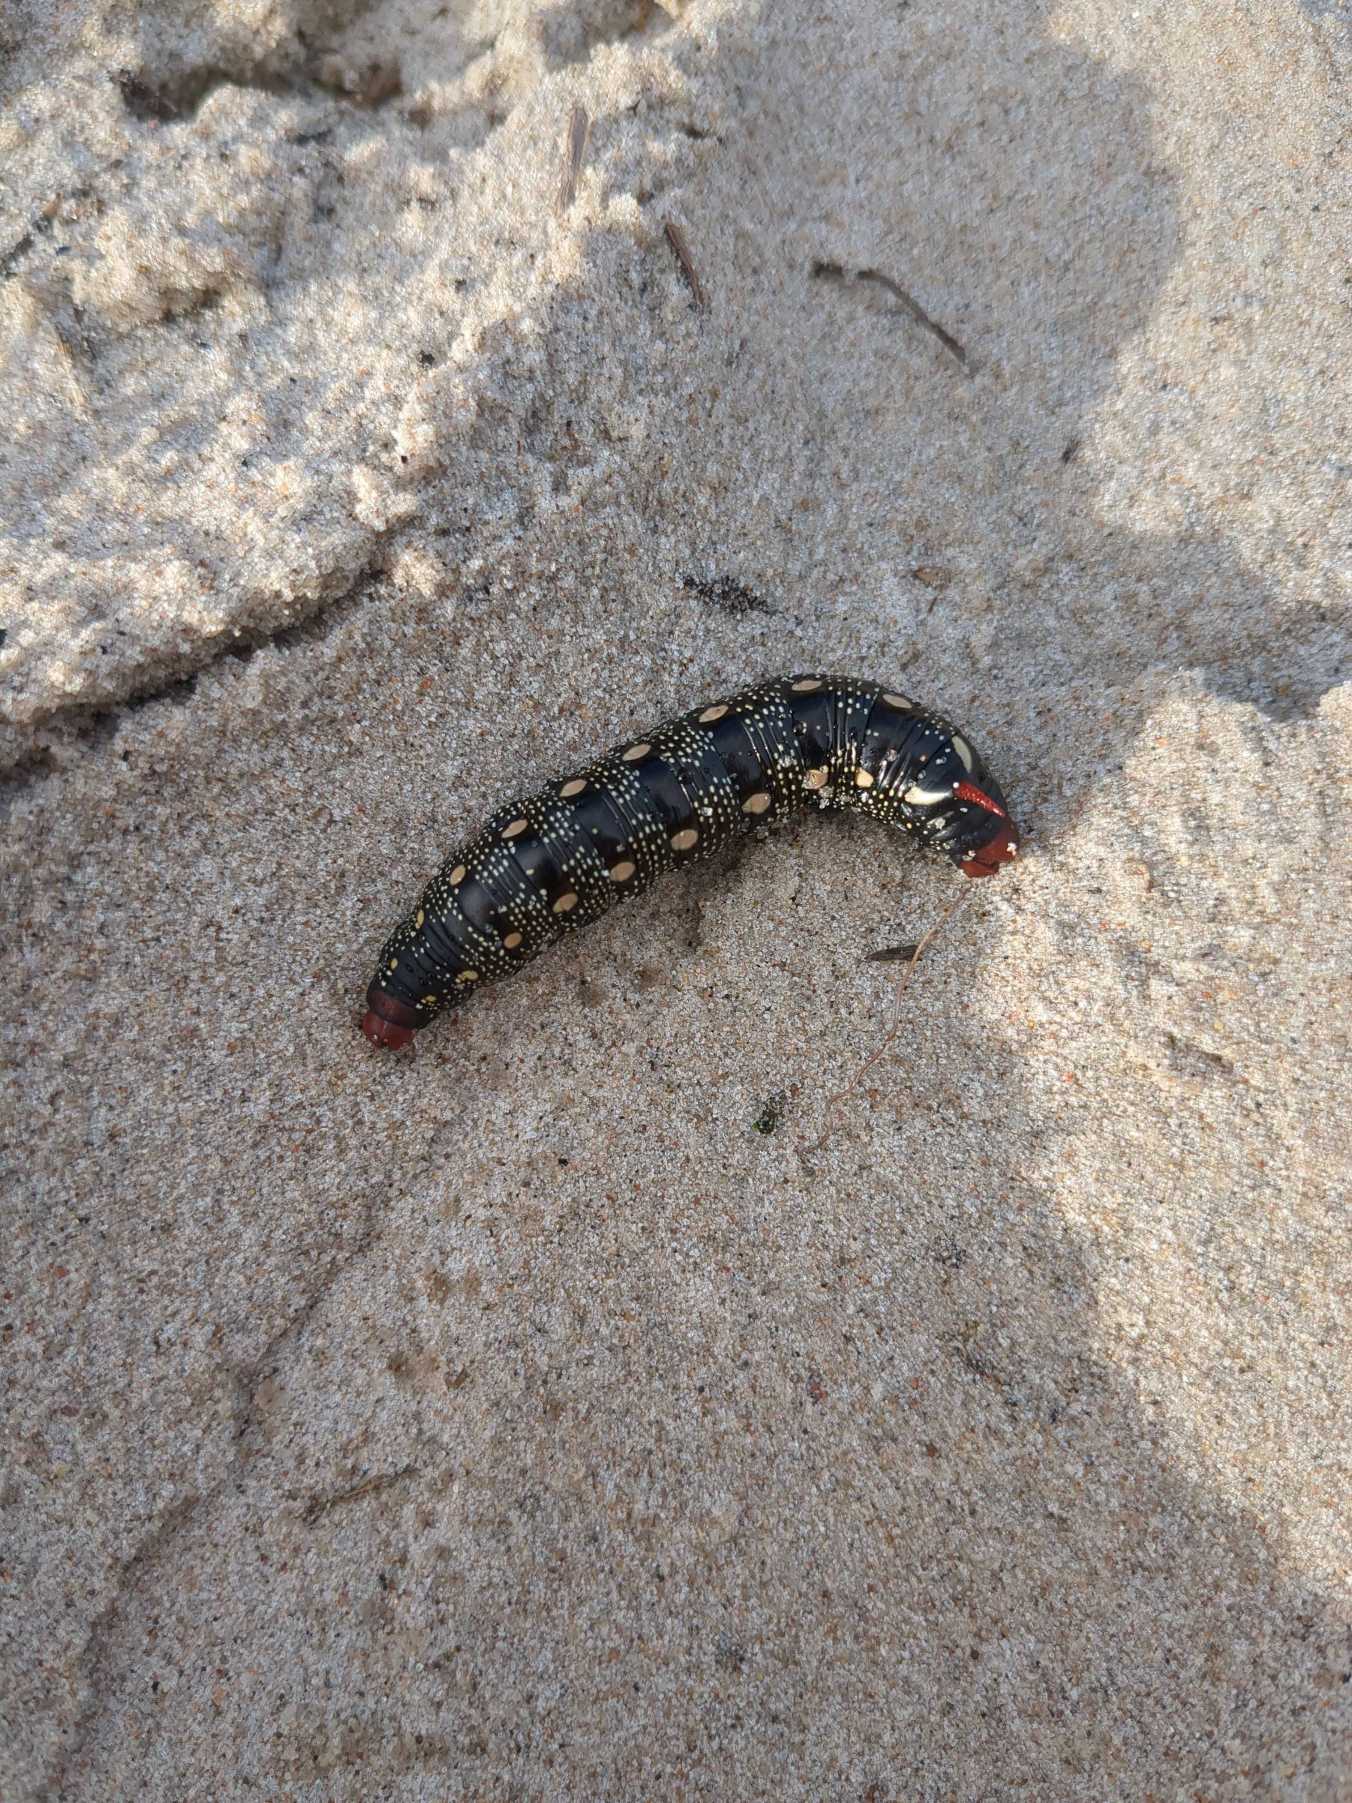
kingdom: Animalia
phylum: Arthropoda
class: Insecta
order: Lepidoptera
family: Sphingidae
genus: Hyles
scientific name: Hyles gallii
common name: Snerresværmer
